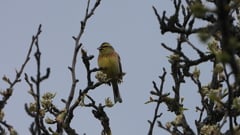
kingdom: Animalia
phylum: Chordata
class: Aves
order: Passeriformes
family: Emberizidae
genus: Emberiza
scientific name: Emberiza cirlus
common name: Cirl bunting
